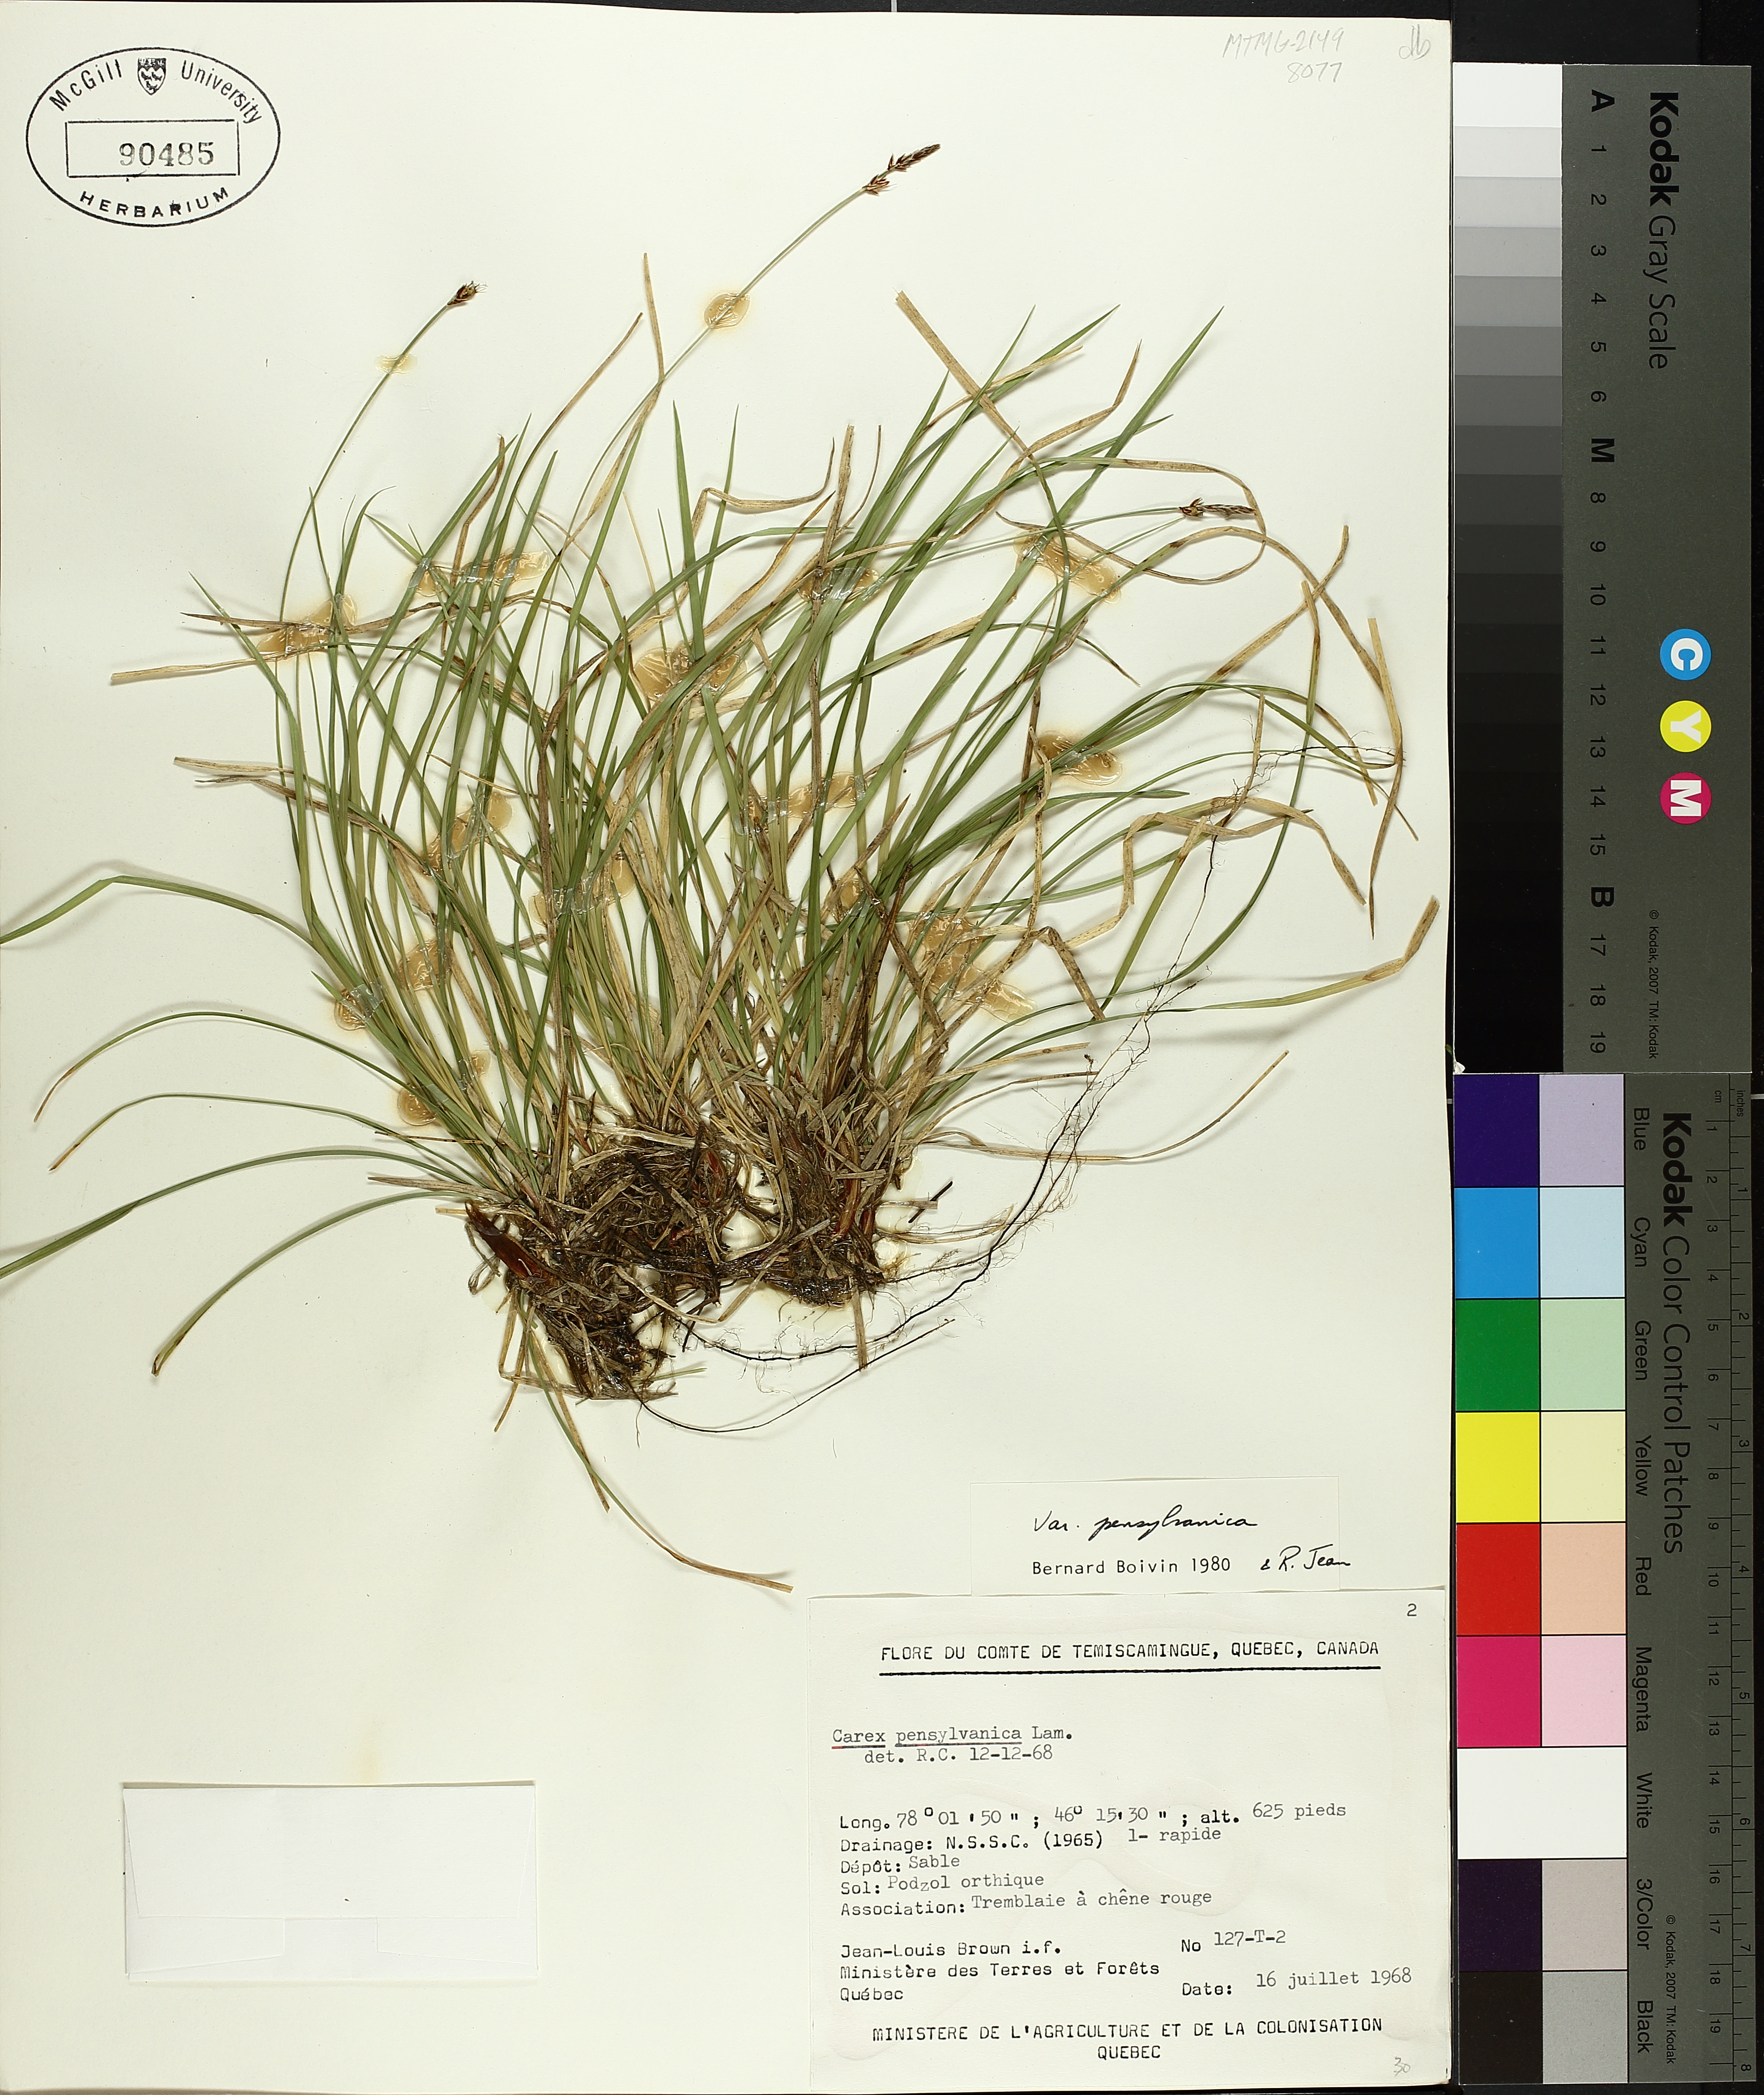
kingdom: Plantae
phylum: Tracheophyta
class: Liliopsida
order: Poales
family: Cyperaceae
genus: Carex
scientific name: Carex pensylvanica
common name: Common oak sedge
